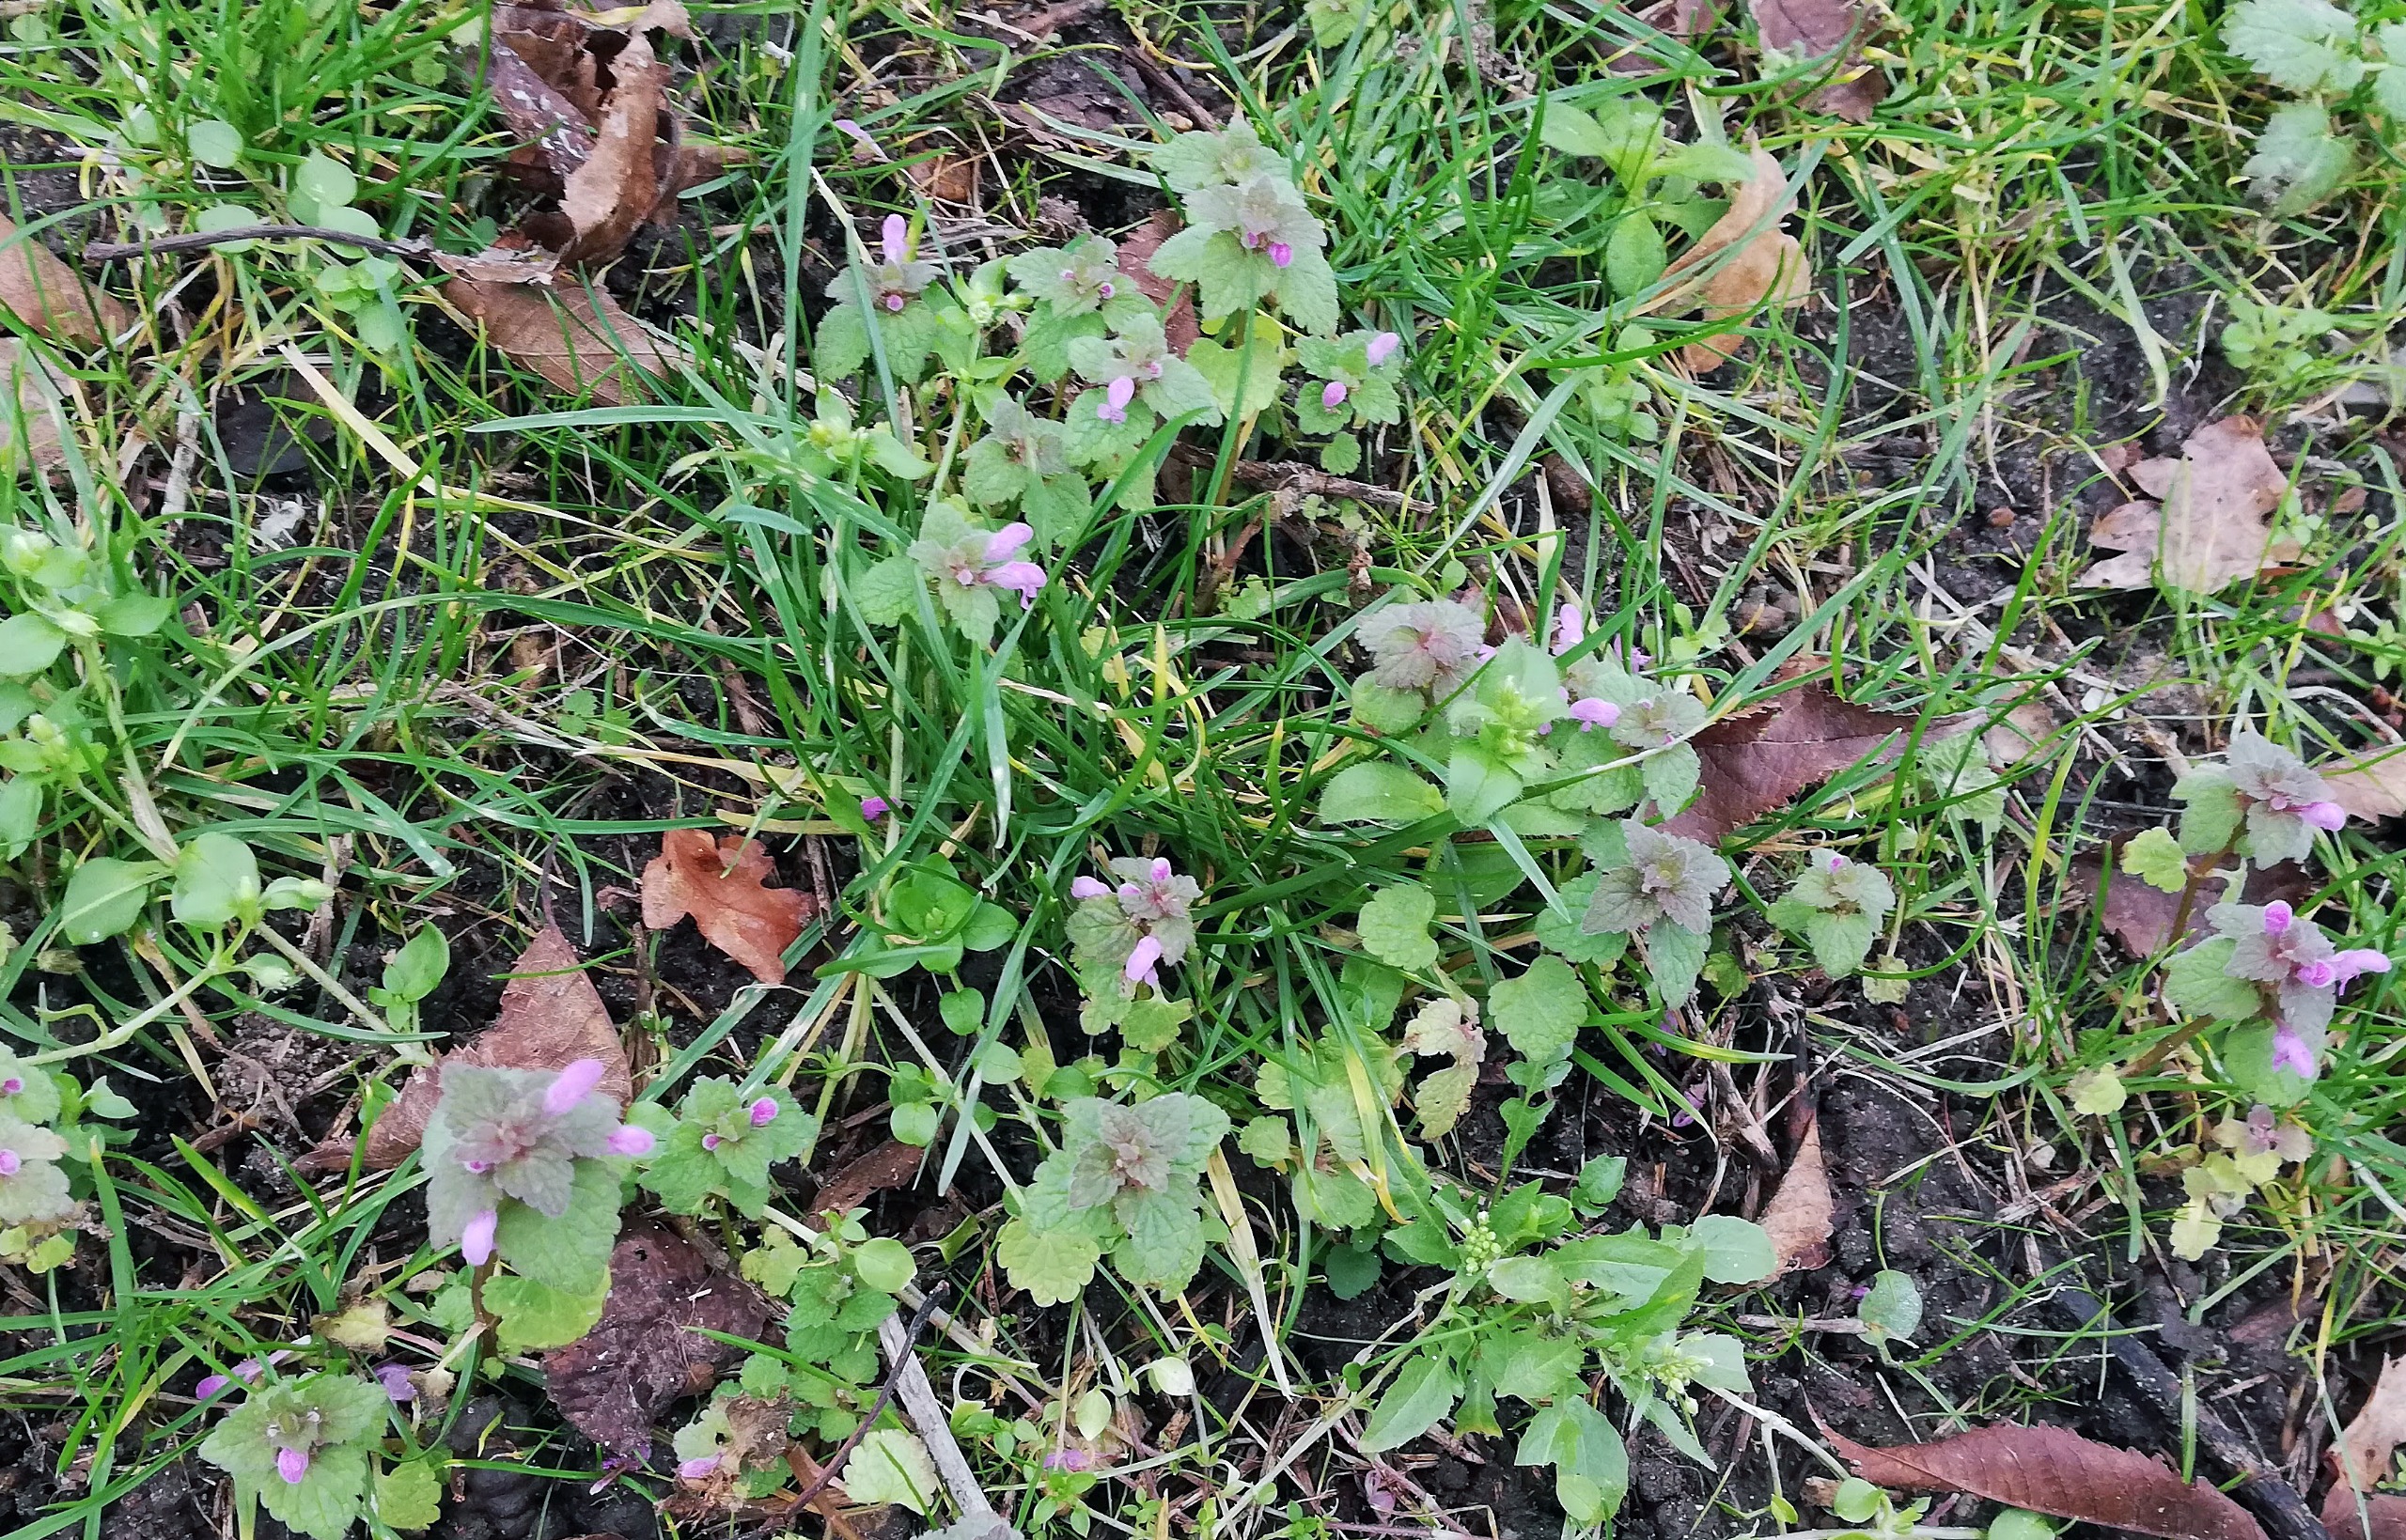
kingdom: Plantae
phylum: Tracheophyta
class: Magnoliopsida
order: Lamiales
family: Lamiaceae
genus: Lamium
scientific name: Lamium purpureum
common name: Rød tvetand
